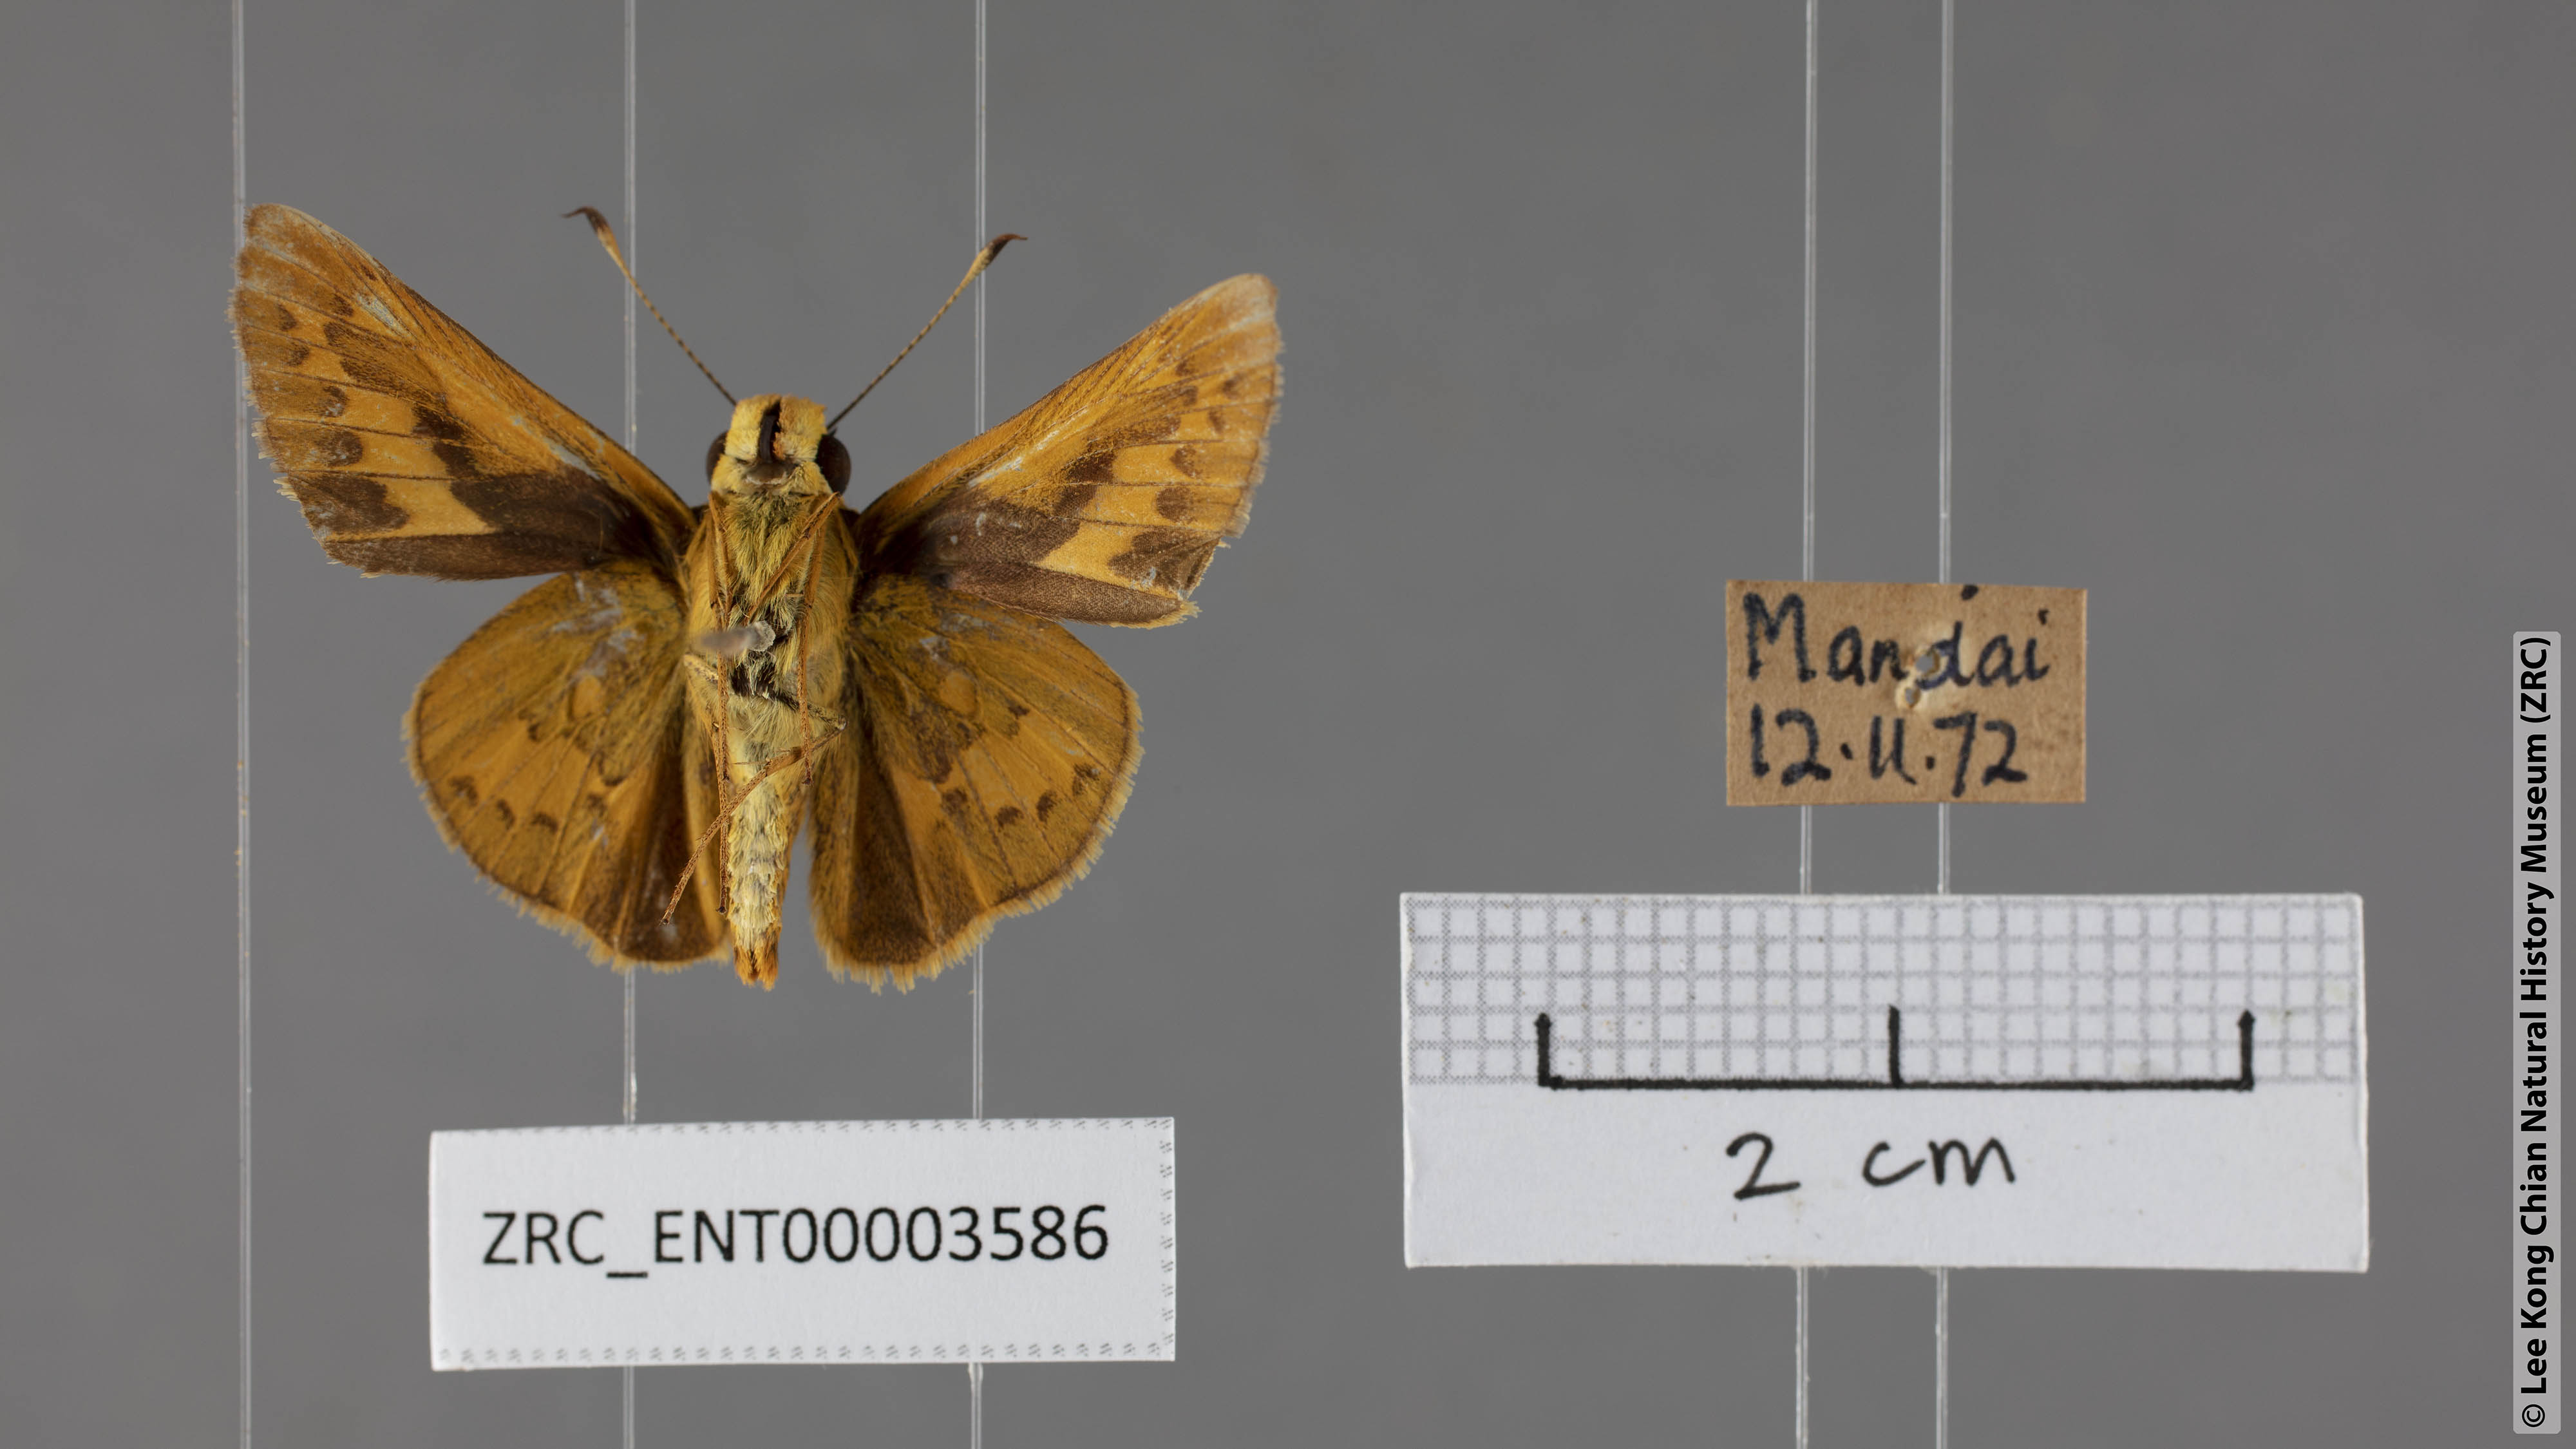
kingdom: Animalia
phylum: Arthropoda
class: Insecta
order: Lepidoptera
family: Hesperiidae
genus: Telicota
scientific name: Telicota colon
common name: Pale palm dart
